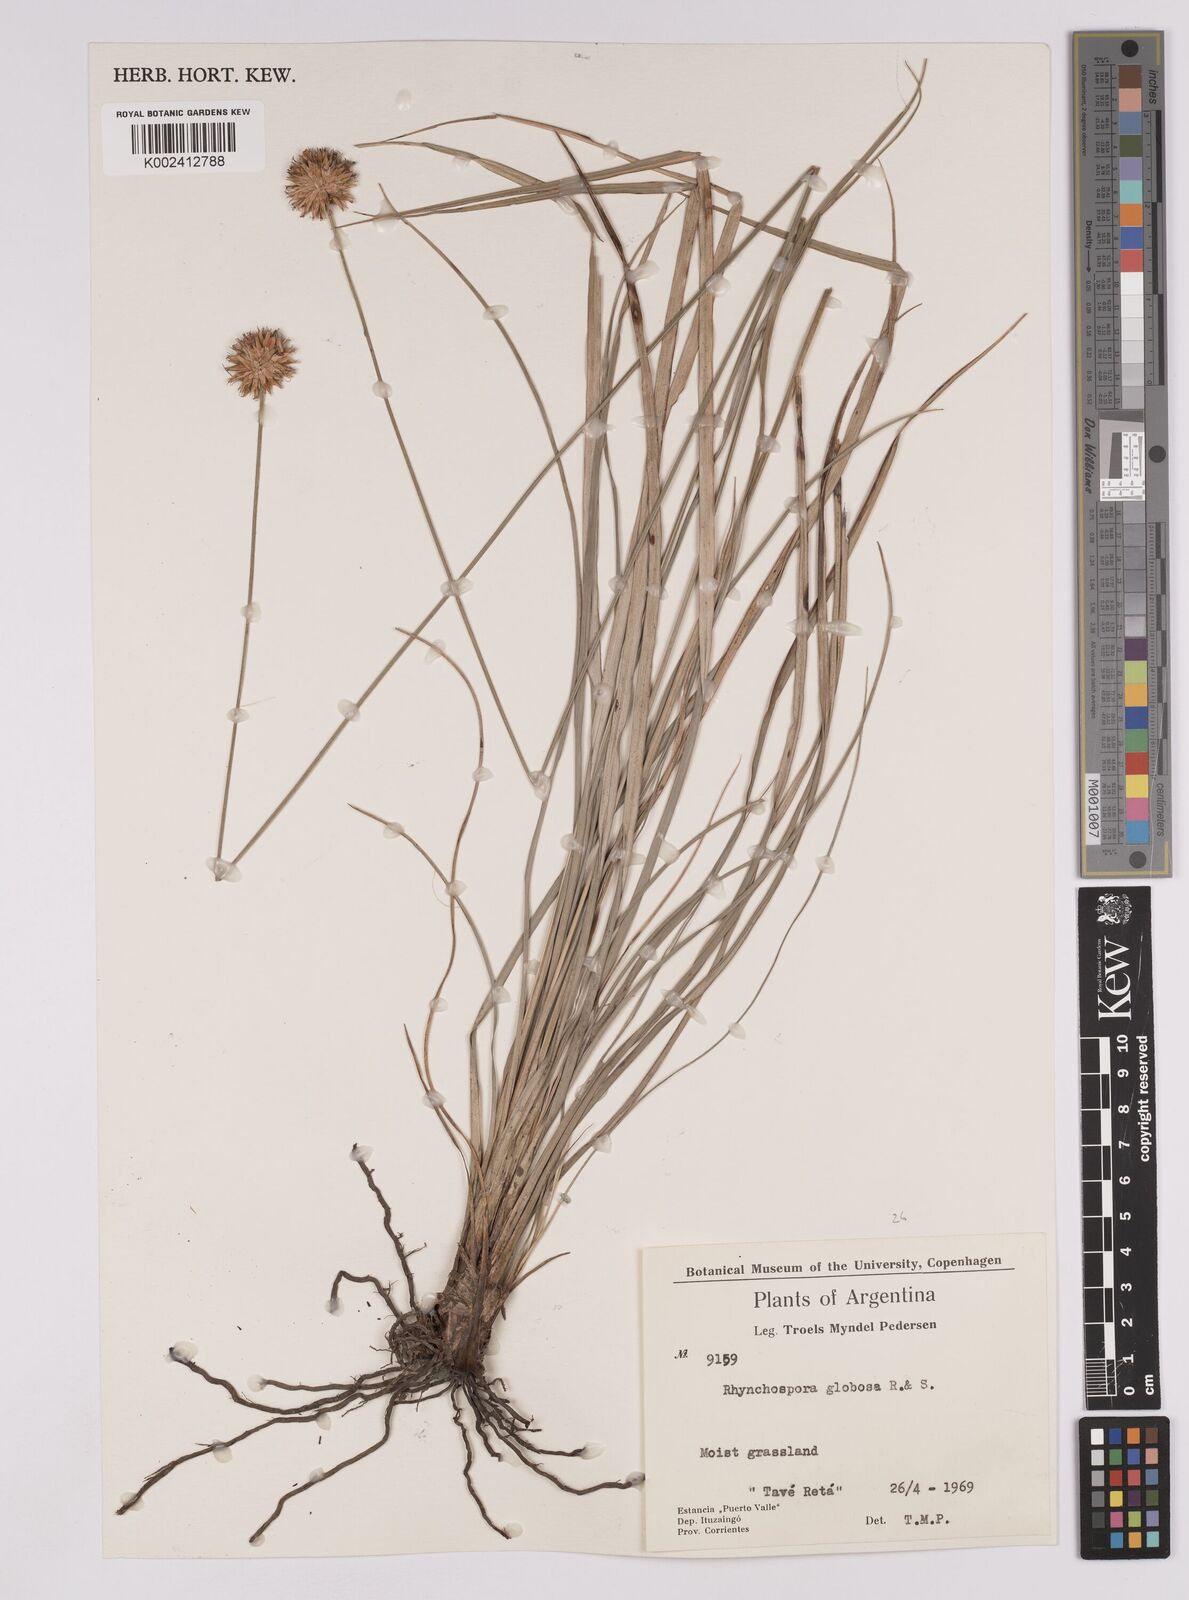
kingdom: Plantae
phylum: Tracheophyta
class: Liliopsida
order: Poales
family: Cyperaceae
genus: Rhynchospora
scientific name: Rhynchospora globosa
